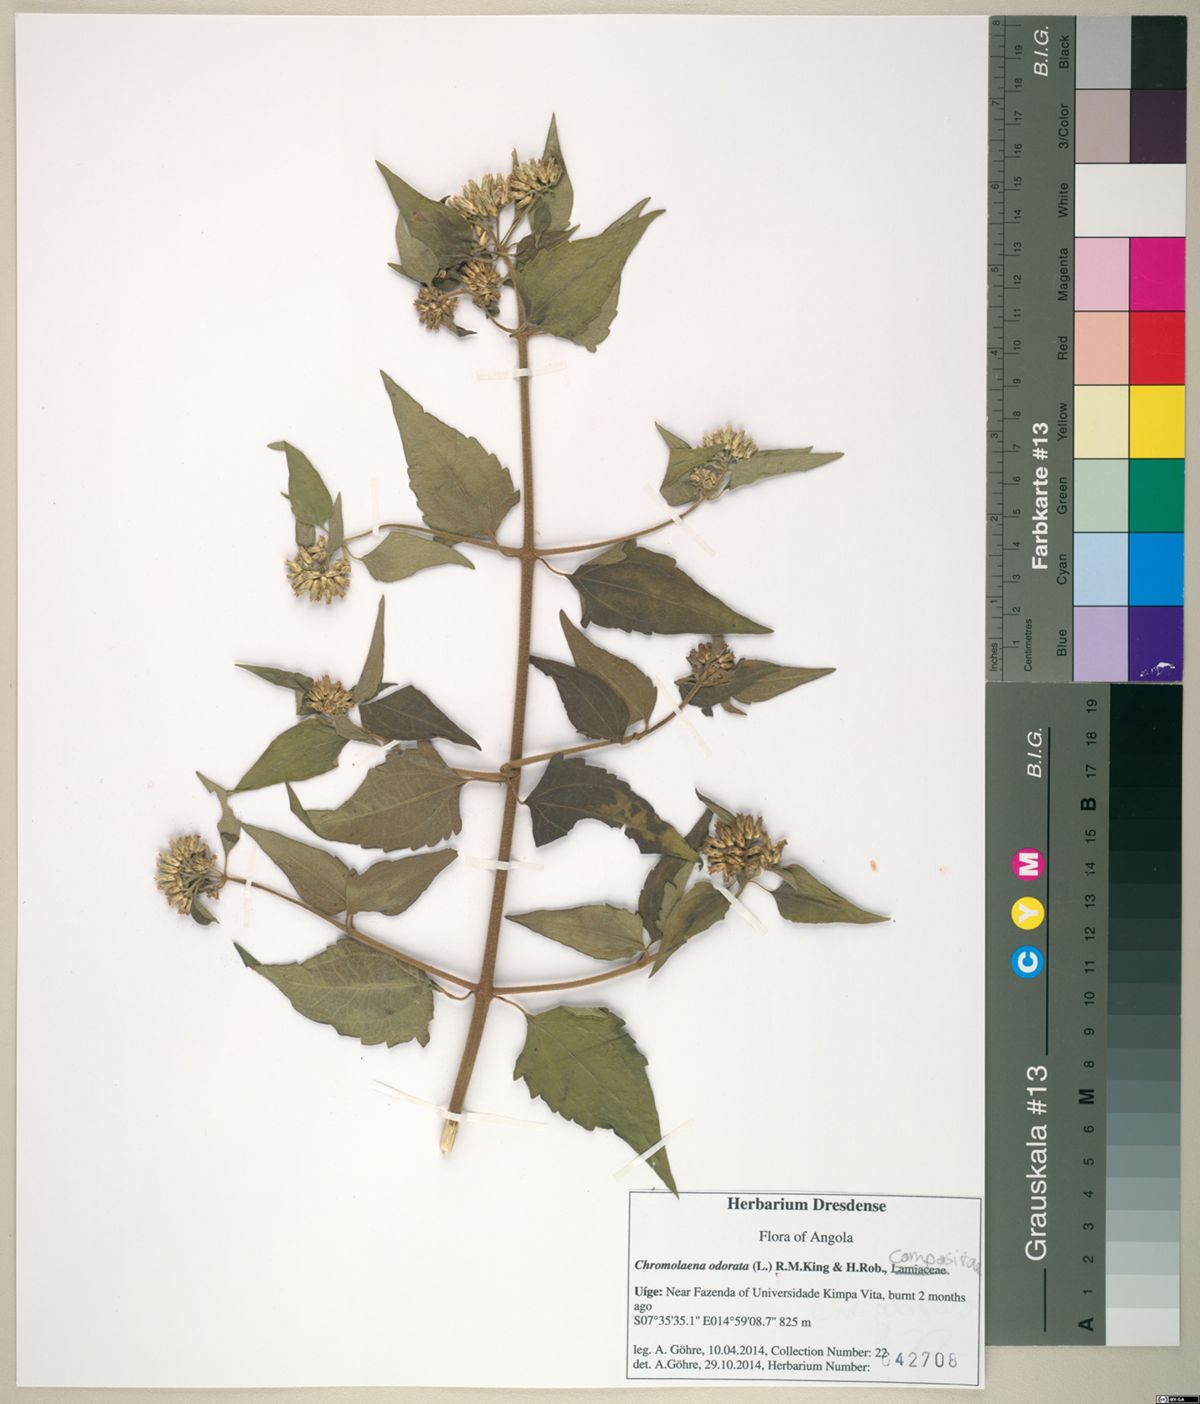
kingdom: Plantae
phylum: Tracheophyta
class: Magnoliopsida
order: Asterales
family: Asteraceae
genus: Chromolaena
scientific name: Chromolaena odorata
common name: Siamweed
